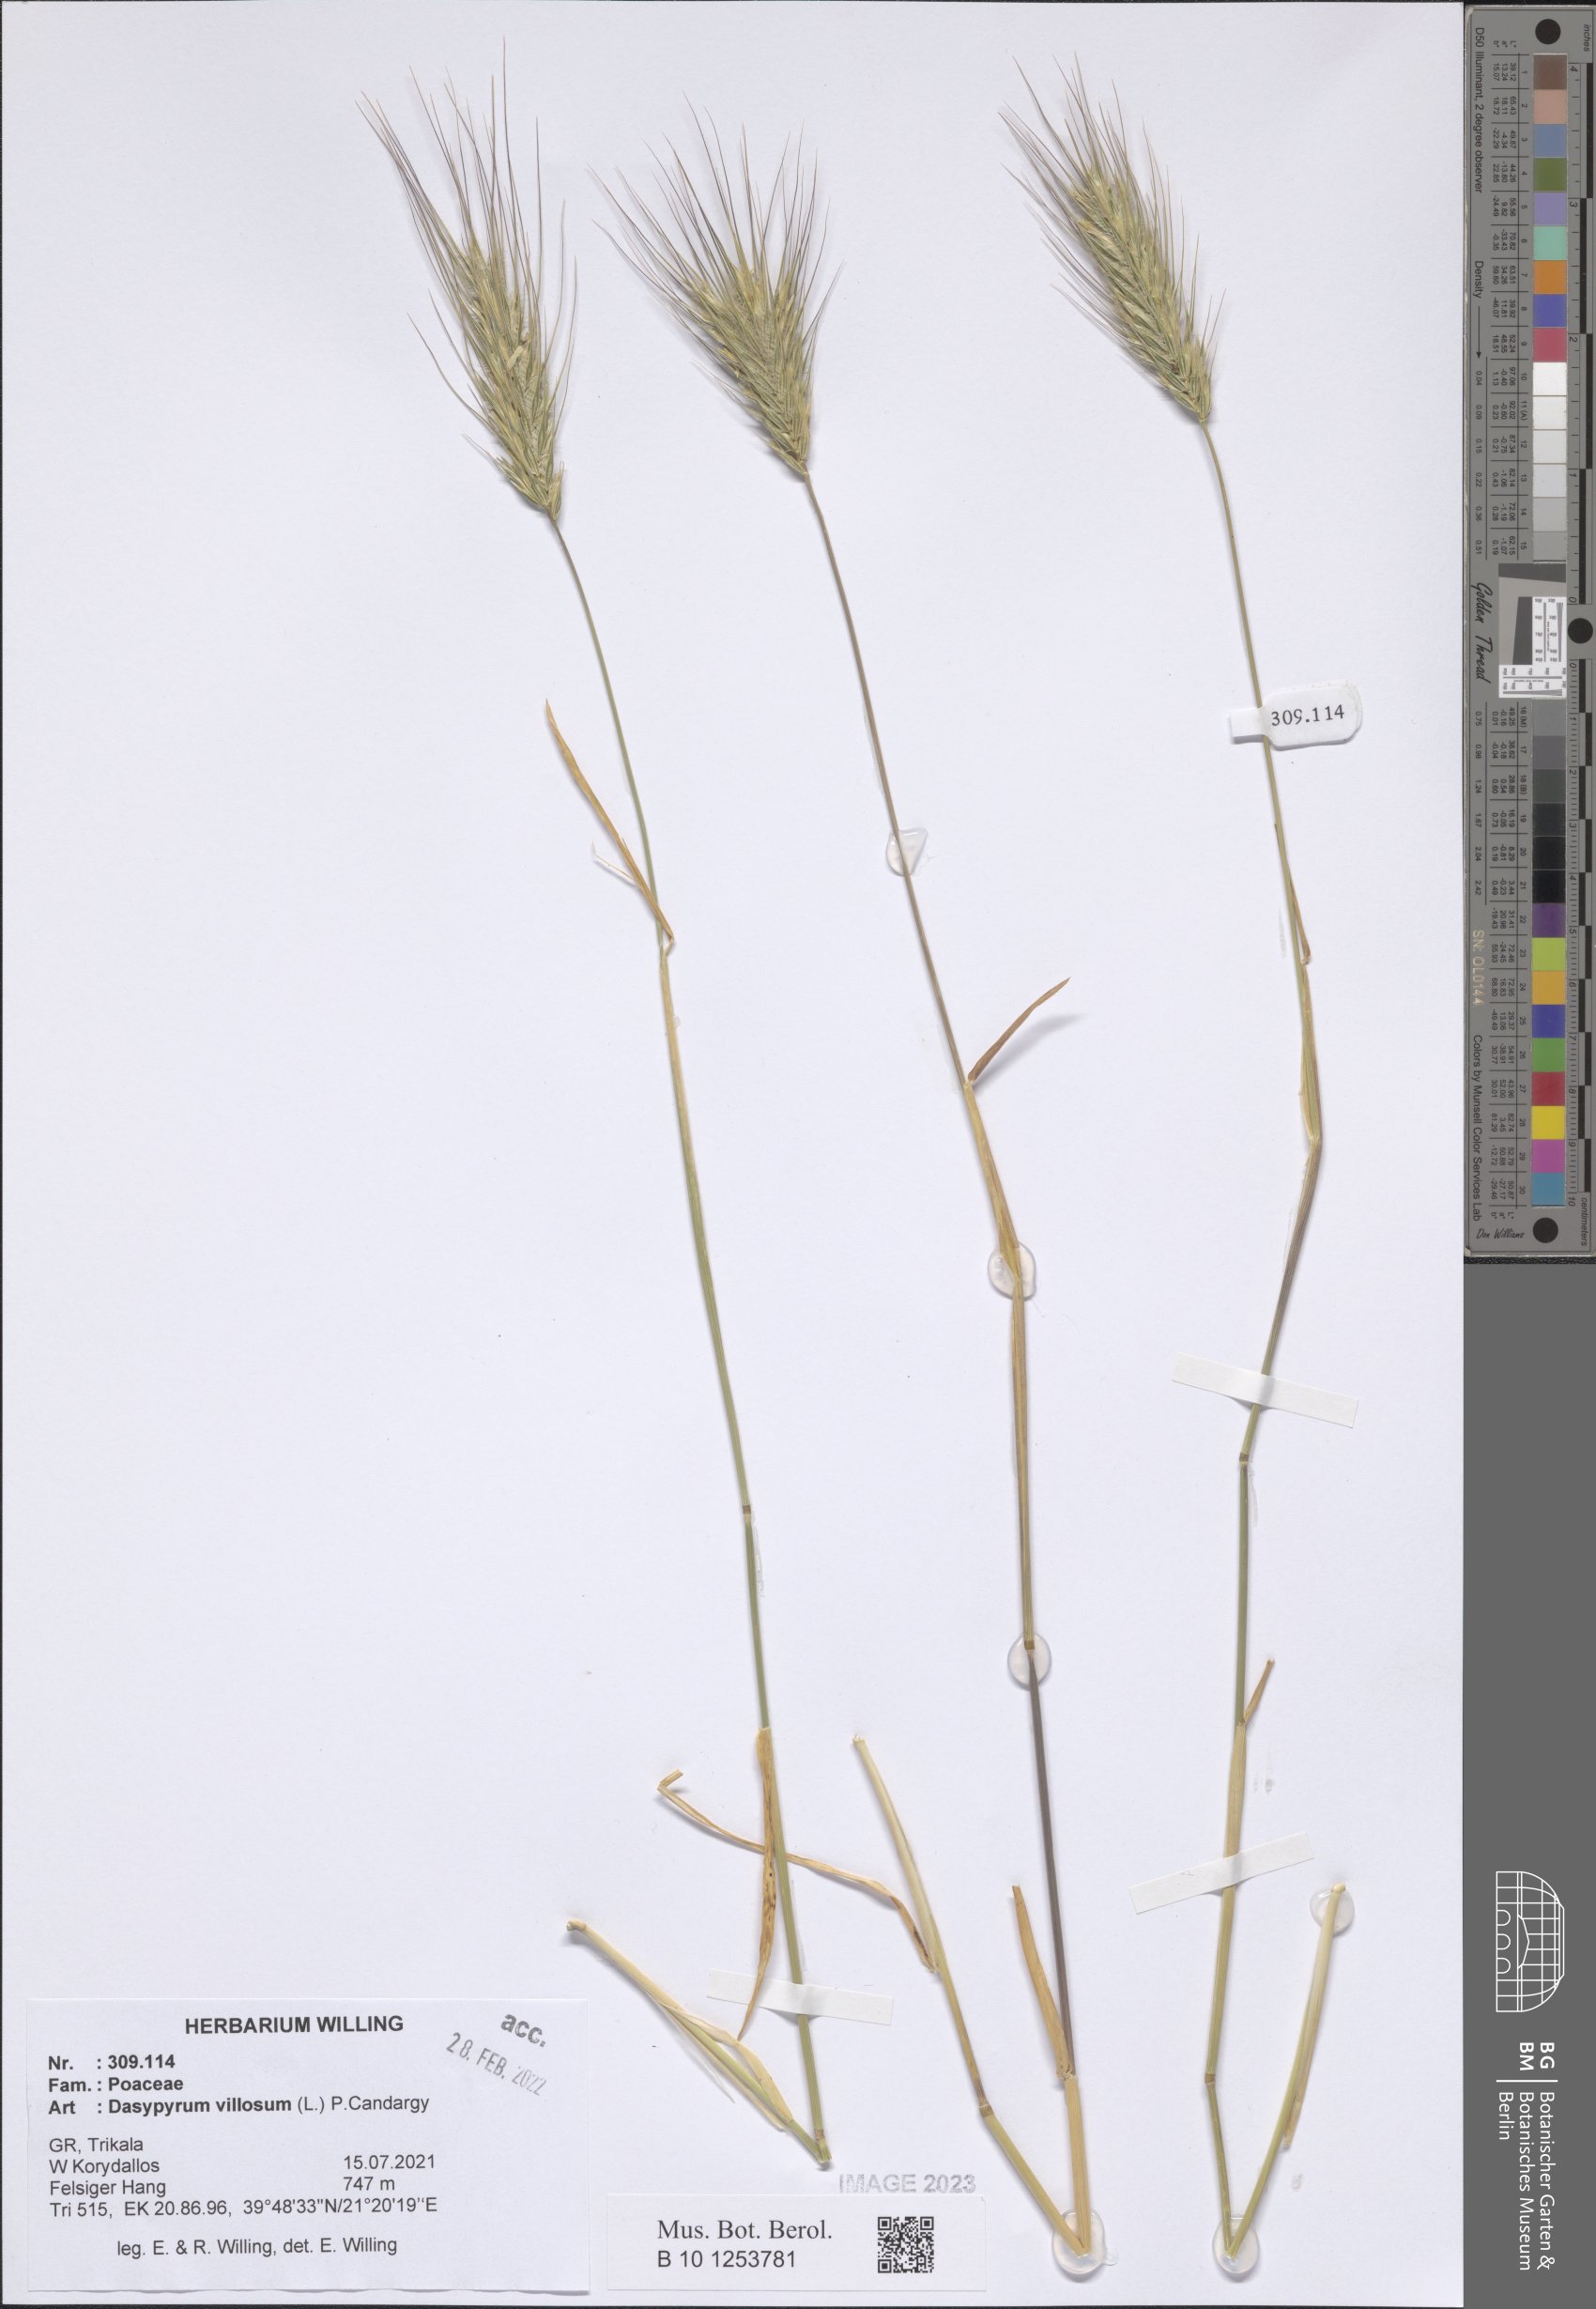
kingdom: Plantae
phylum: Tracheophyta
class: Liliopsida
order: Poales
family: Poaceae
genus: Dasypyrum
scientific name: Dasypyrum villosum
